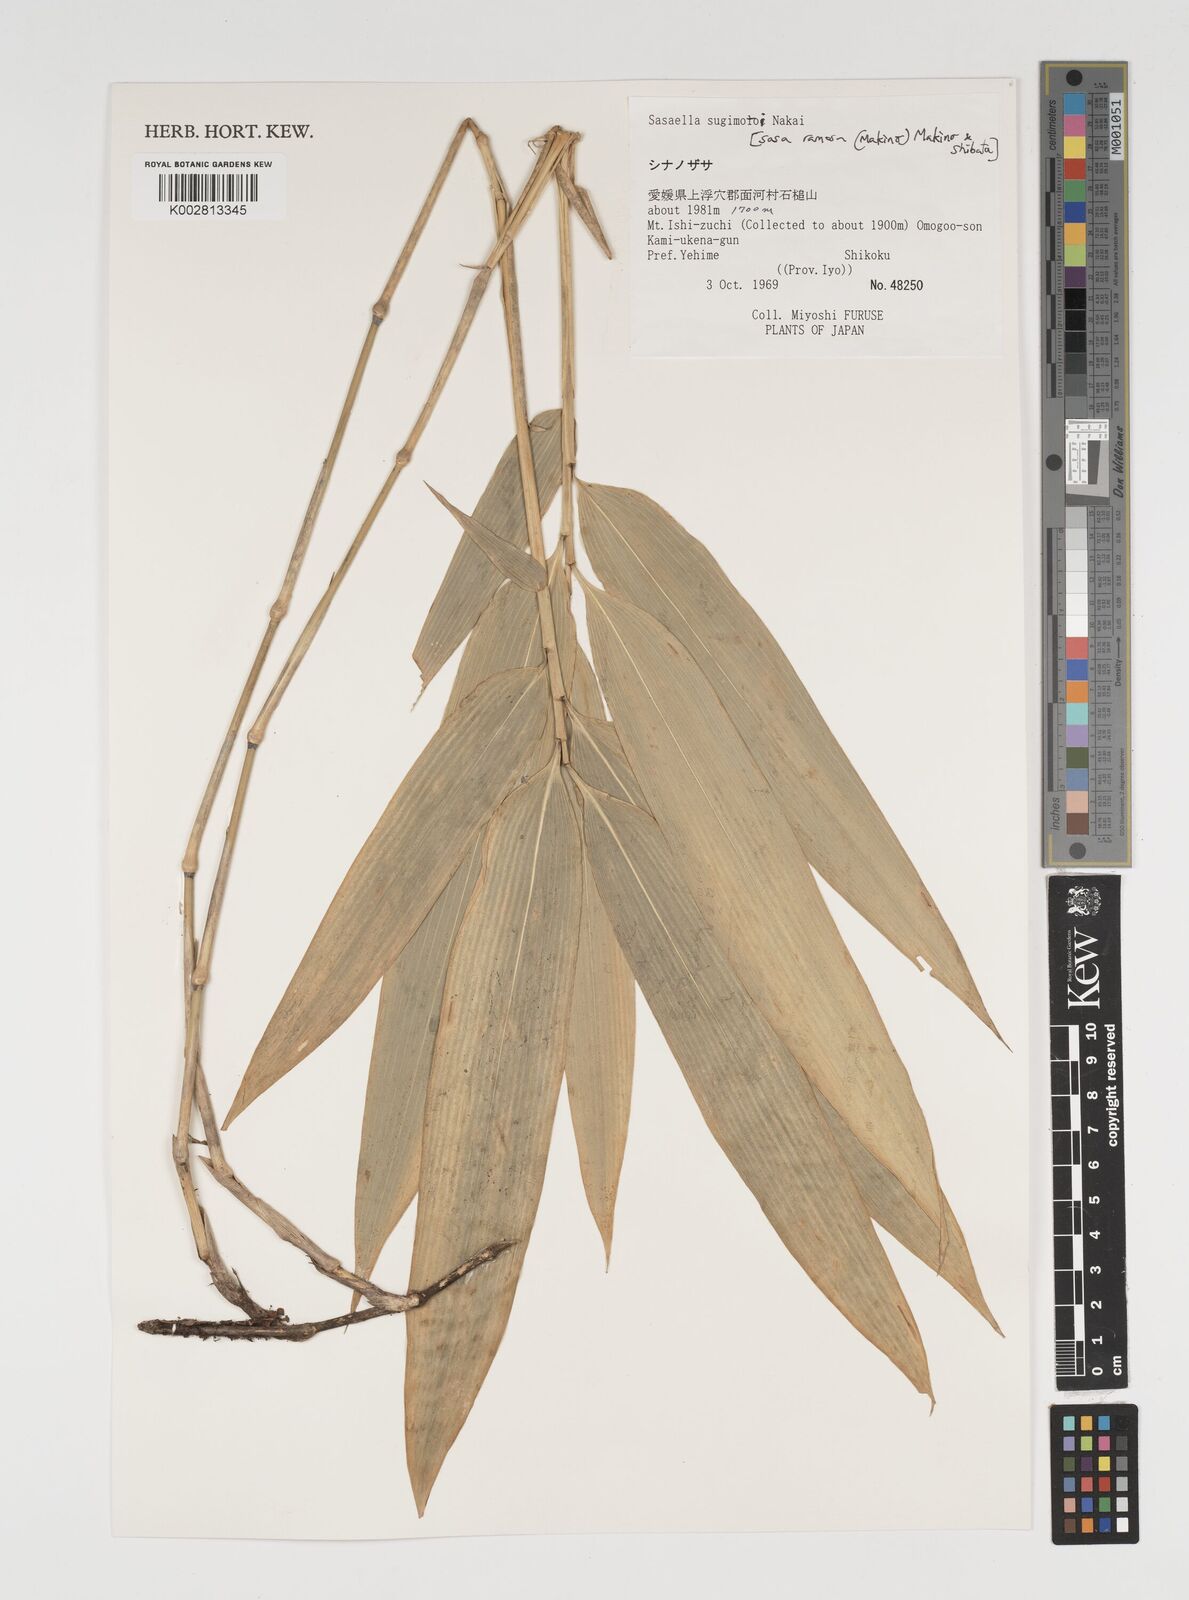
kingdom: Plantae
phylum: Tracheophyta
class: Liliopsida
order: Poales
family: Poaceae
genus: Sasaella
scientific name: Sasaella ramosa
